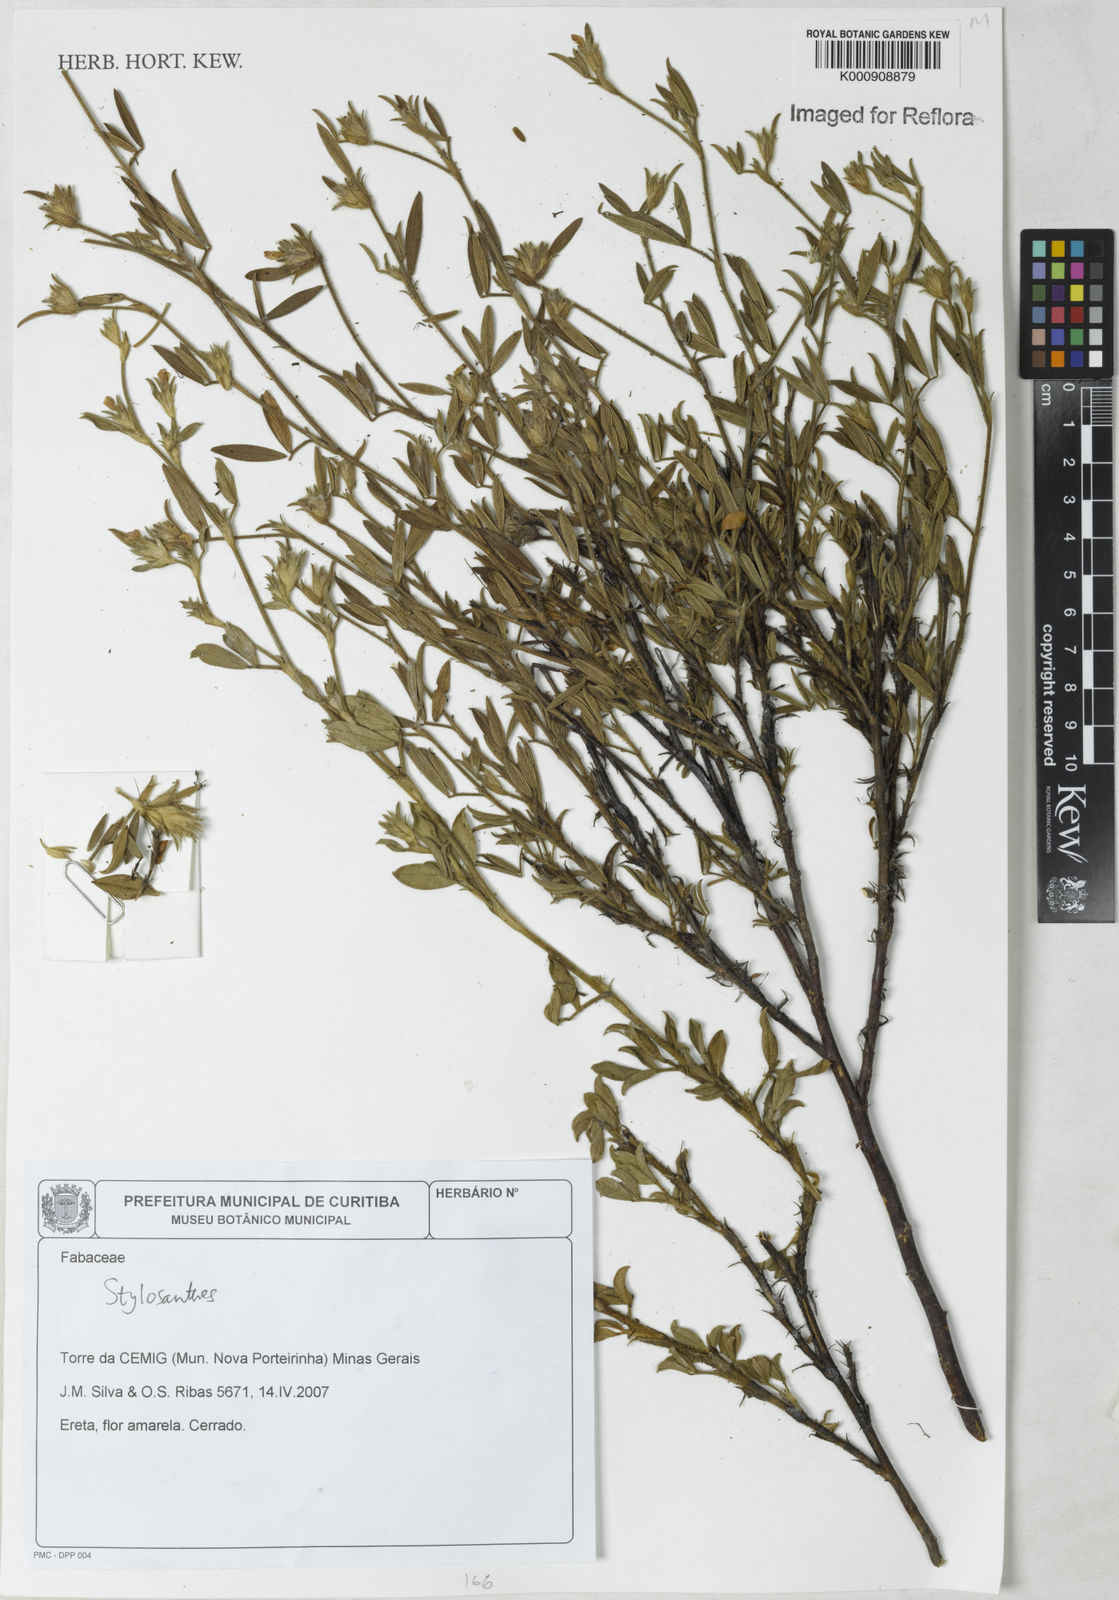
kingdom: Plantae
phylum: Tracheophyta
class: Magnoliopsida
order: Fabales
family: Fabaceae
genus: Stylosanthes
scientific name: Stylosanthes
